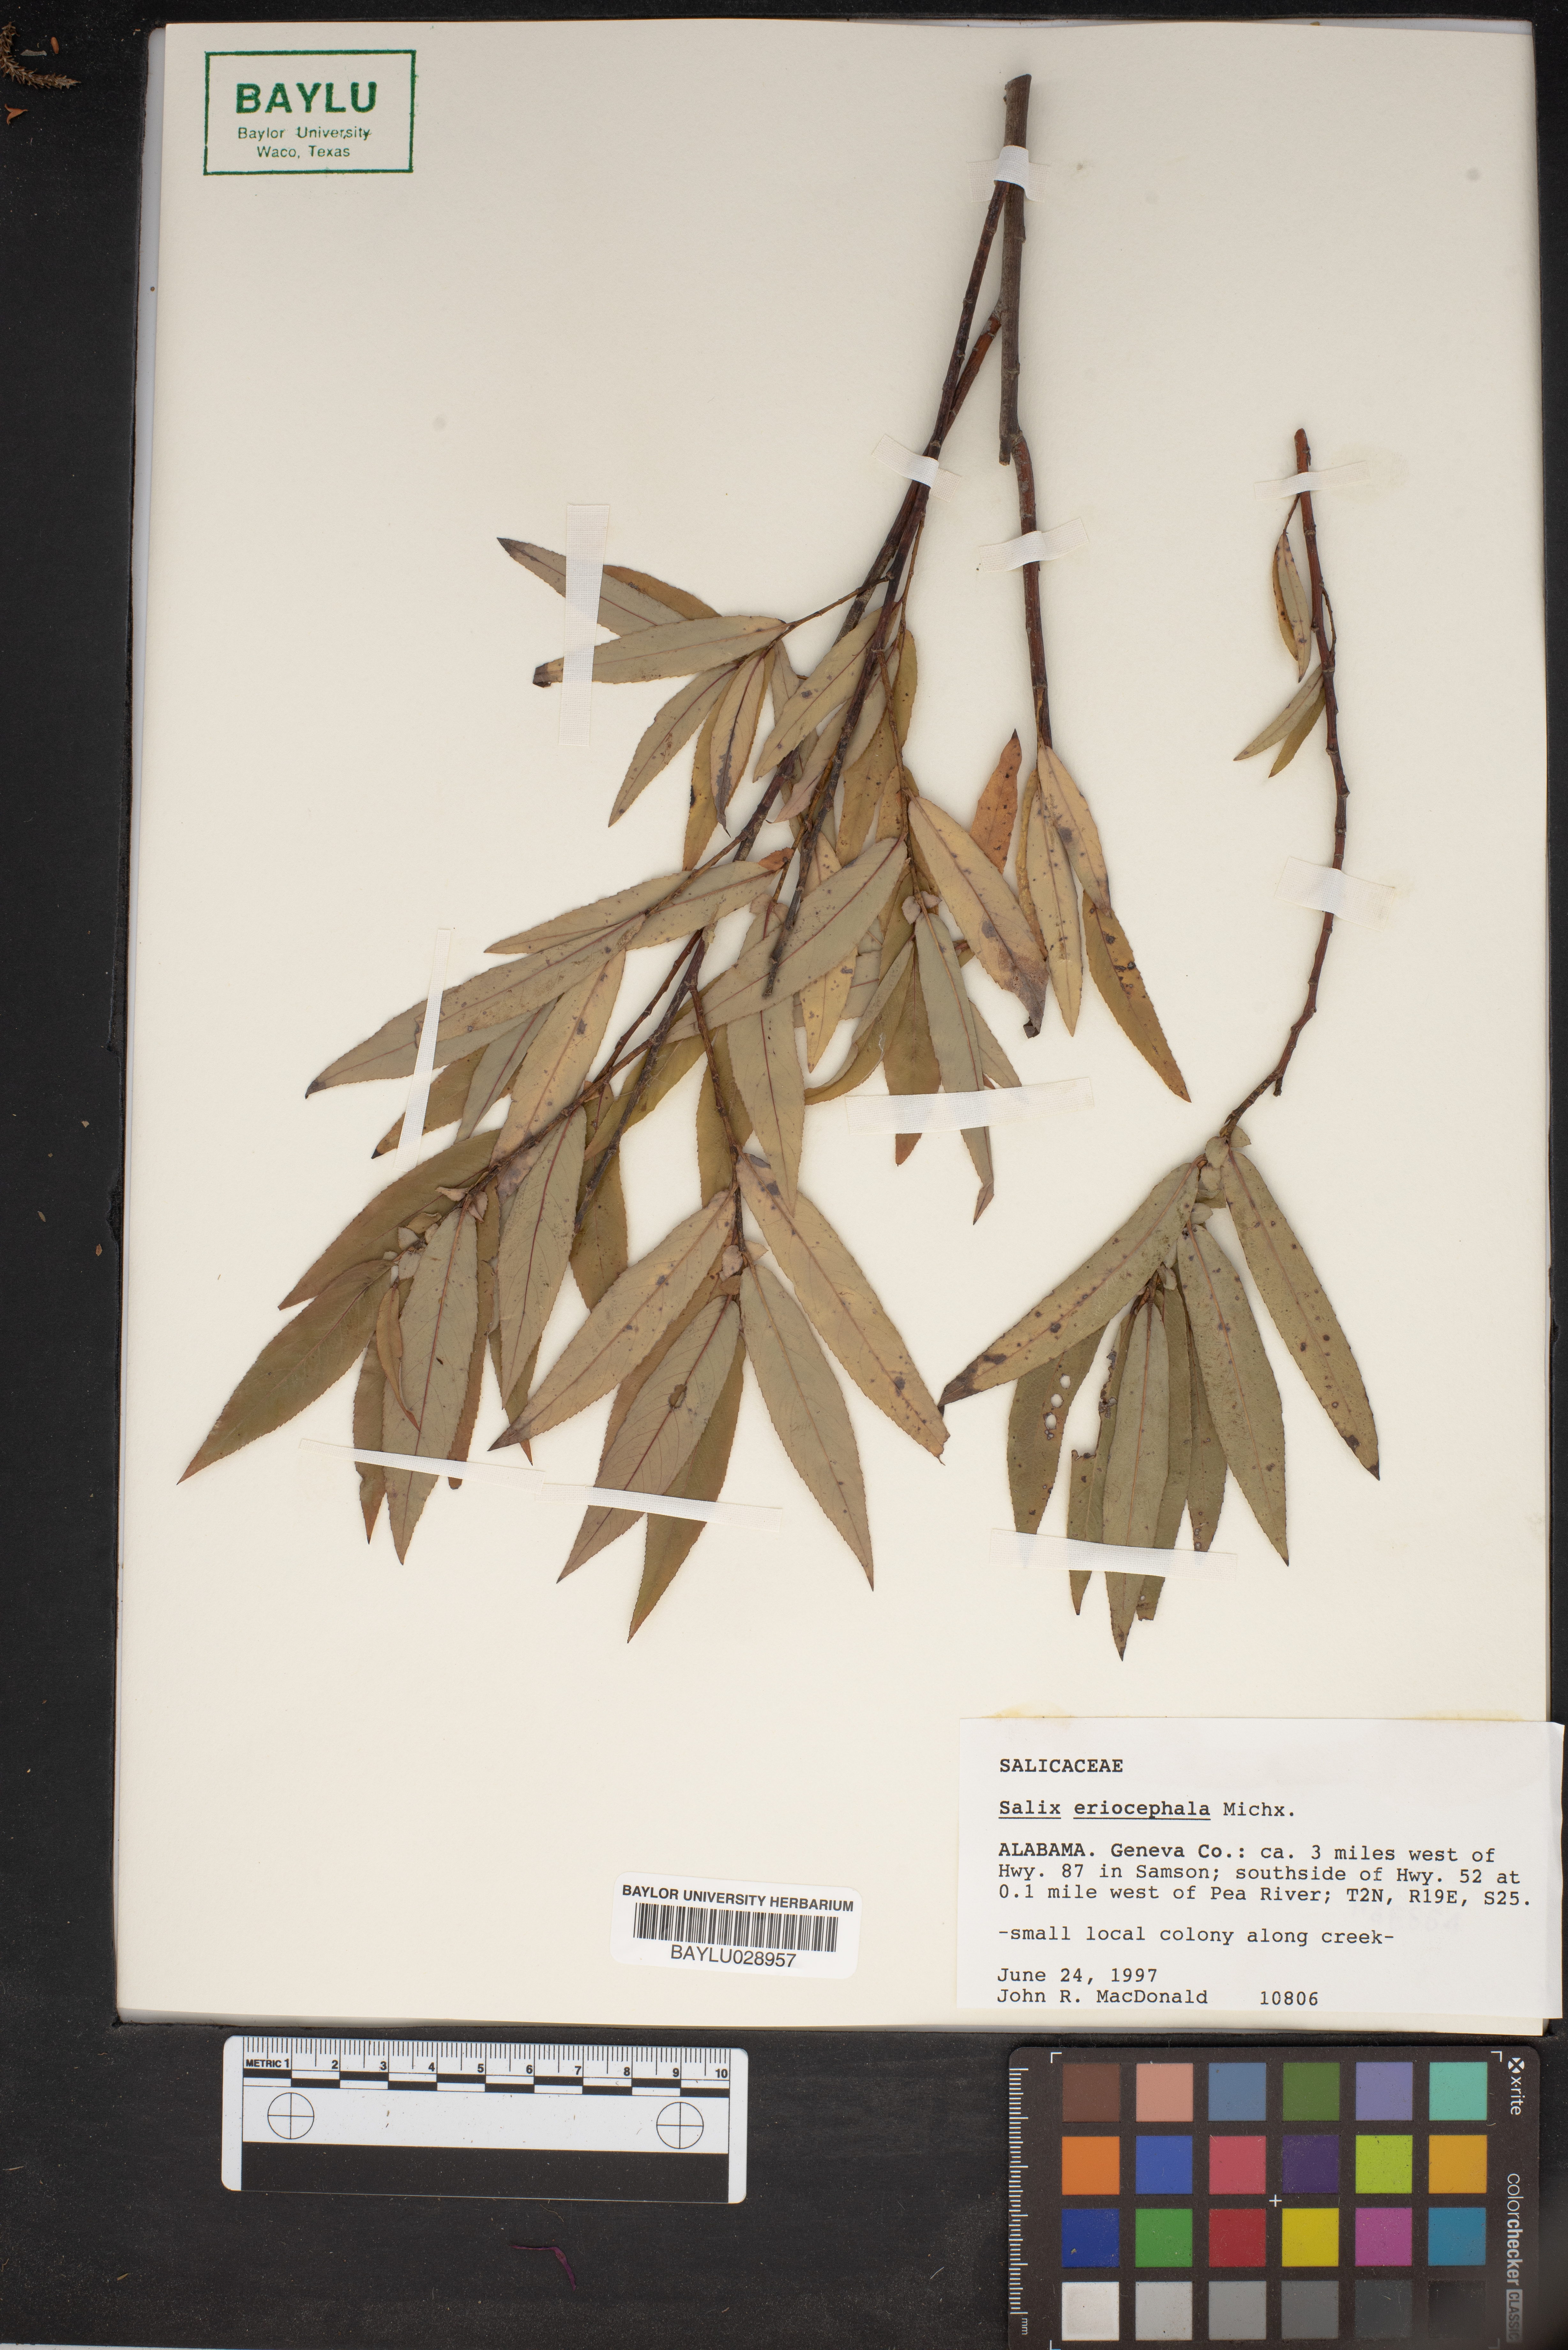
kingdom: Plantae
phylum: Tracheophyta
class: Magnoliopsida
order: Malpighiales
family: Salicaceae
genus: Salix
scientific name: Salix eriocephala
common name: Heart-leaved willow
